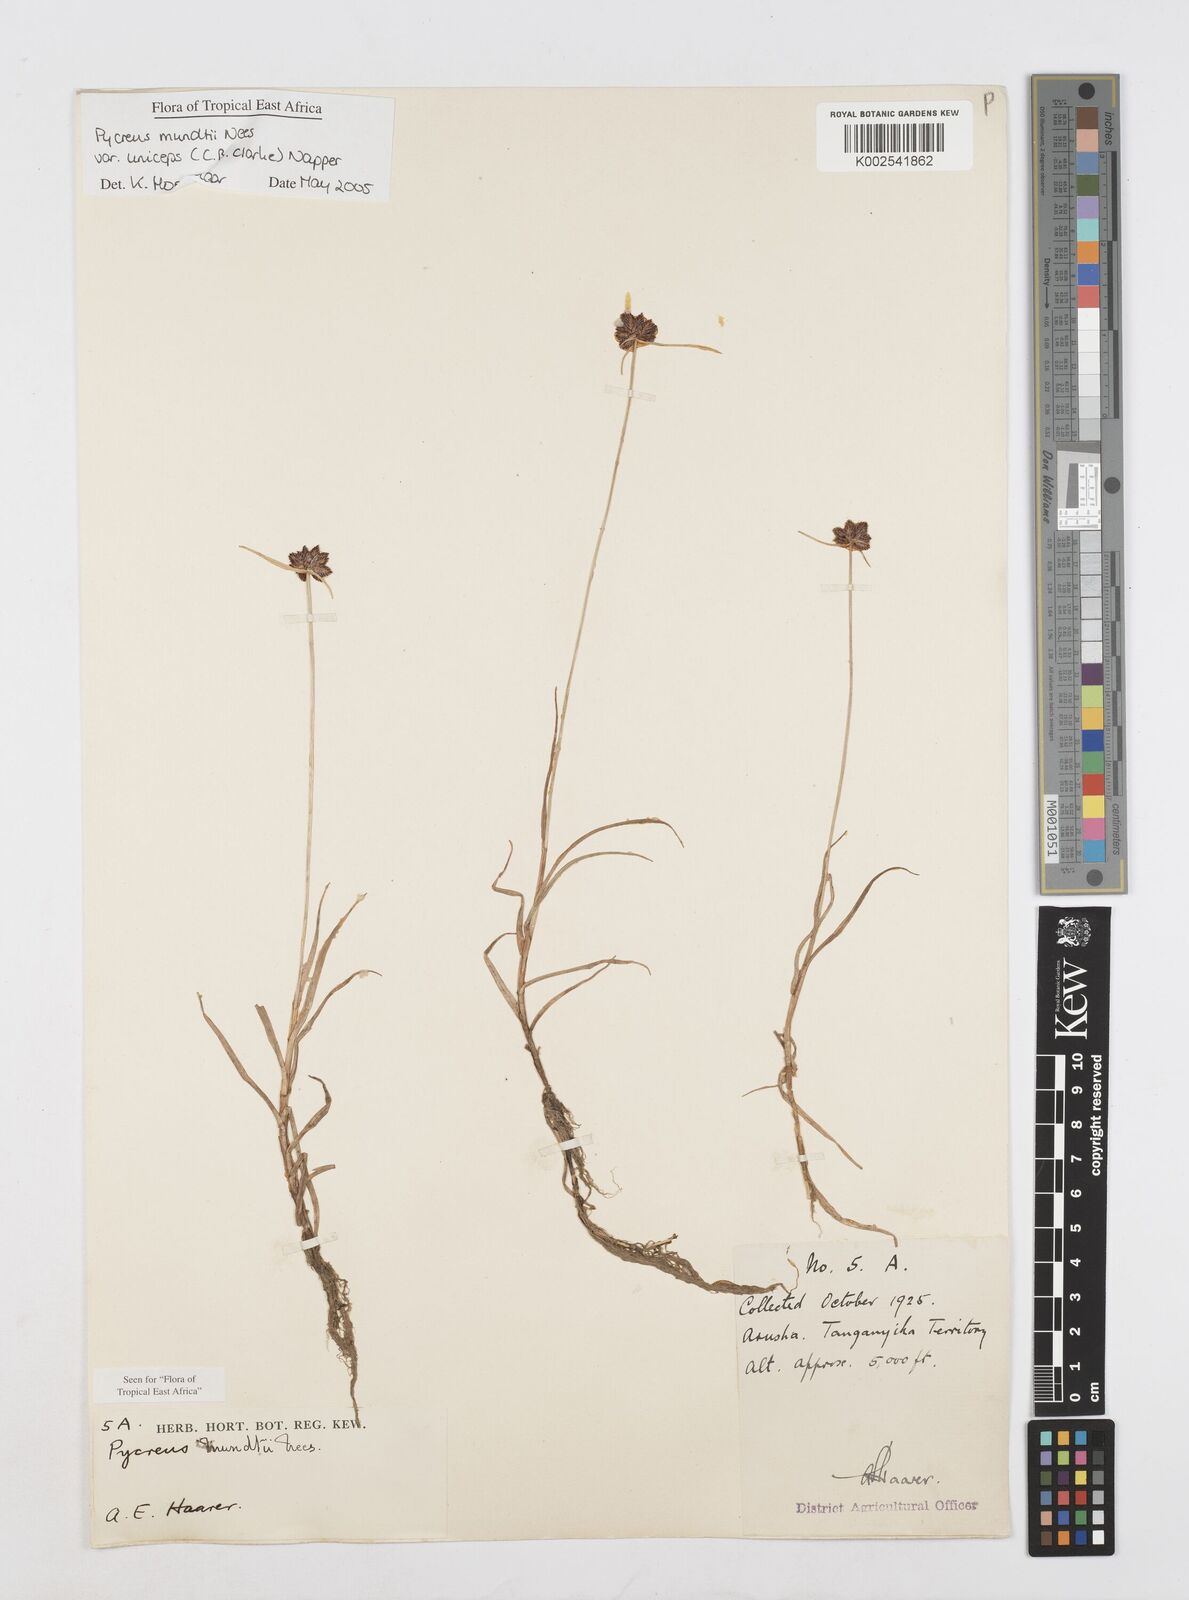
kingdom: Plantae
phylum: Tracheophyta
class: Liliopsida
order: Poales
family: Cyperaceae
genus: Cyperus
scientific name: Cyperus mundii
